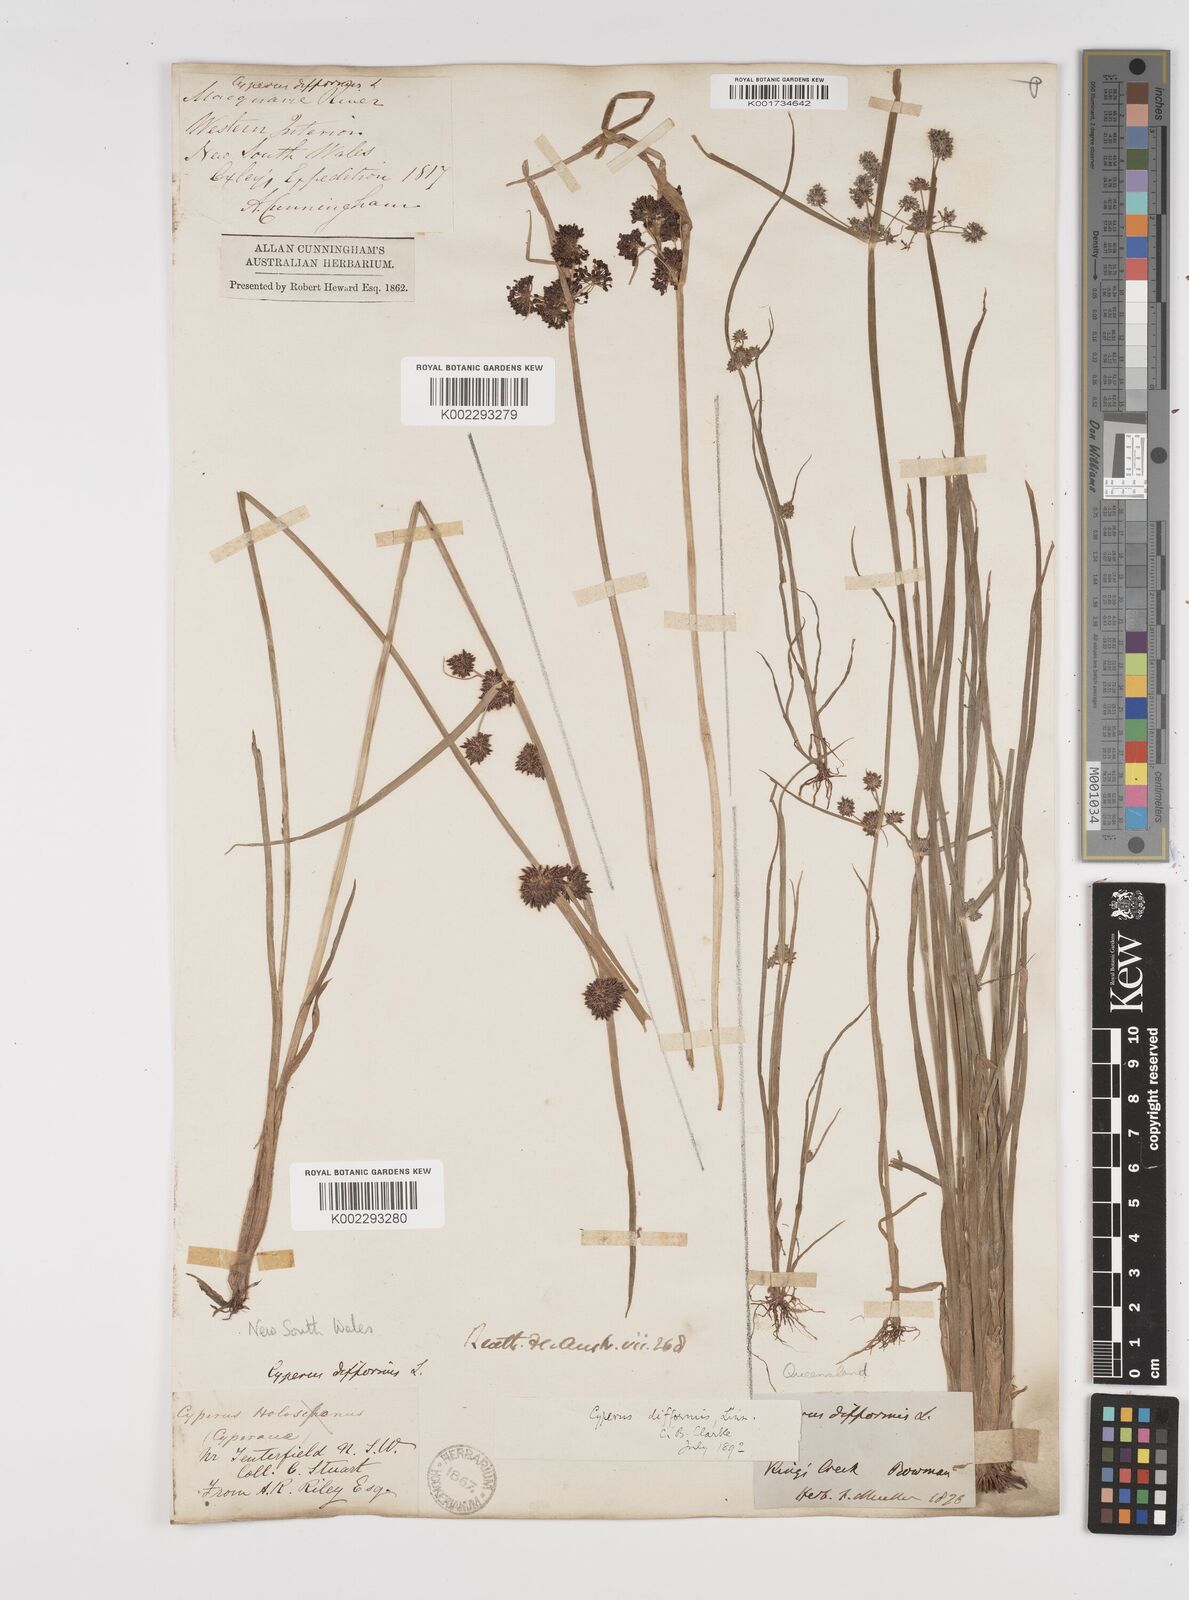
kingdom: Plantae
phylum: Tracheophyta
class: Liliopsida
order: Poales
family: Cyperaceae
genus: Cyperus
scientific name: Cyperus difformis
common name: Variable flatsedge
